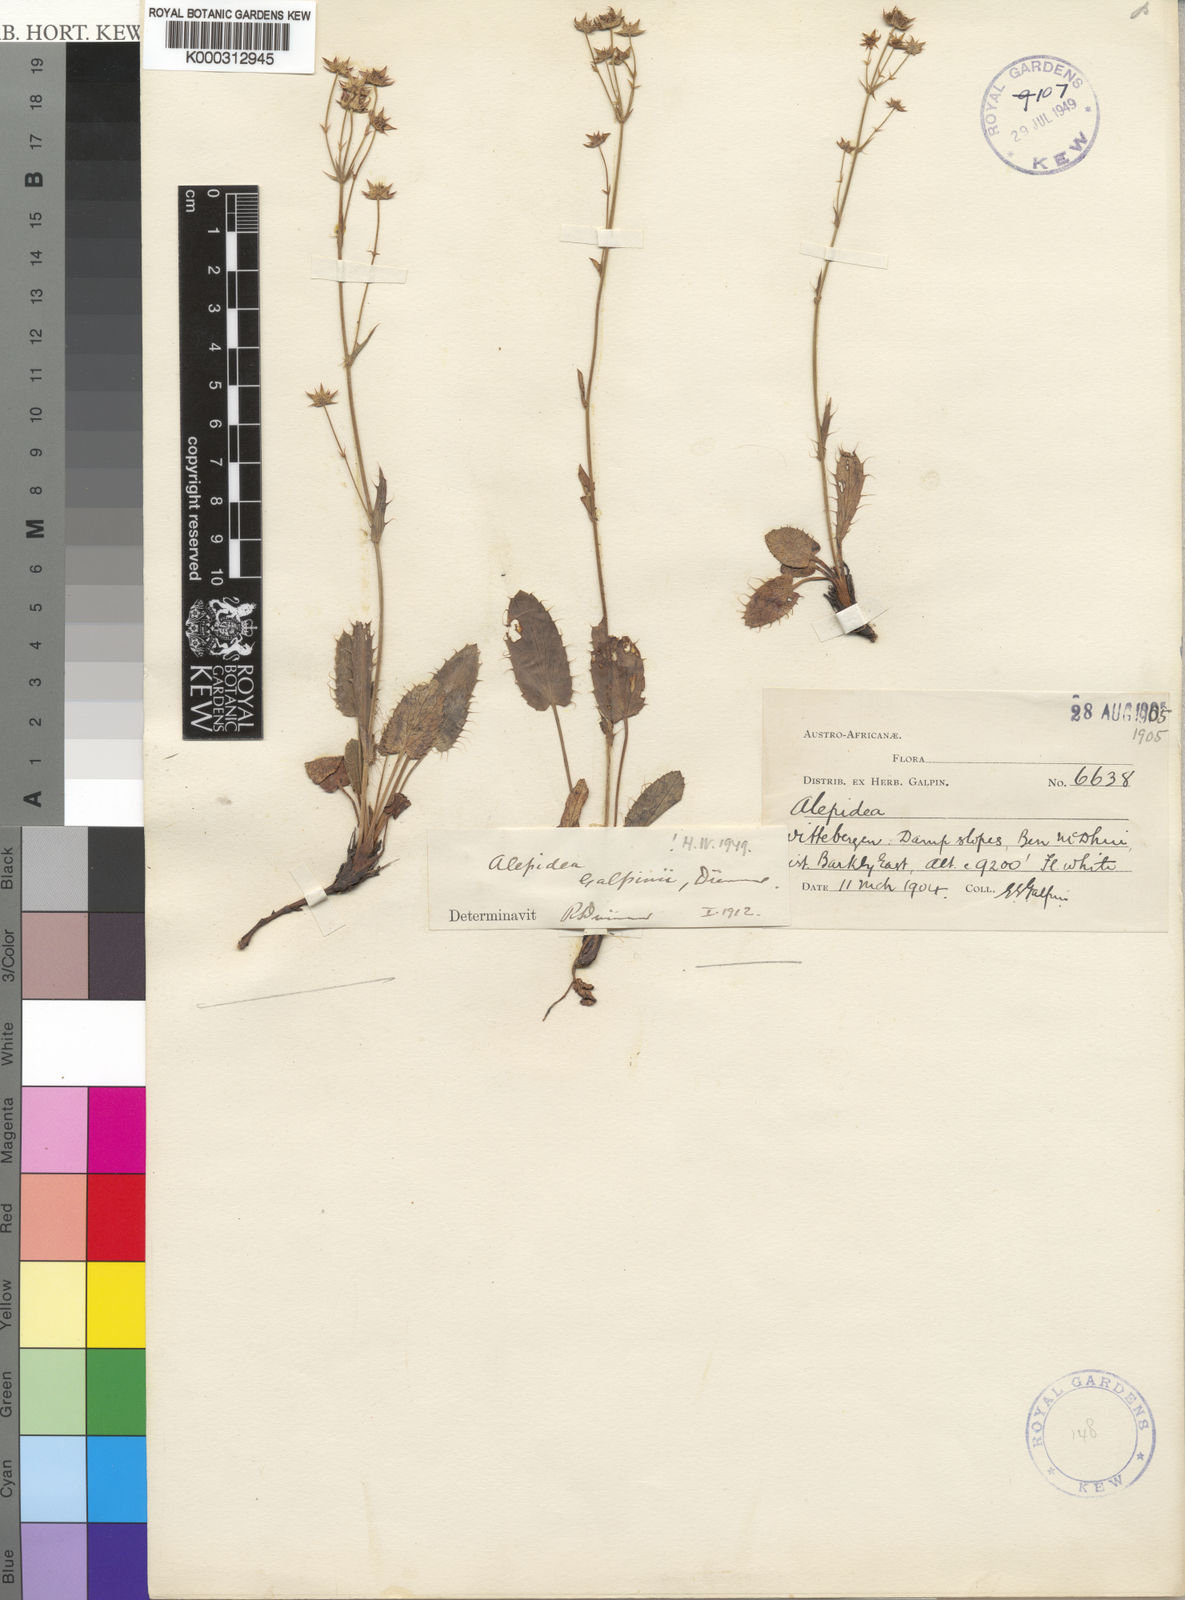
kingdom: Plantae
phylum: Tracheophyta
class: Magnoliopsida
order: Apiales
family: Apiaceae
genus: Alepidea
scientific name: Alepidea galpinii
